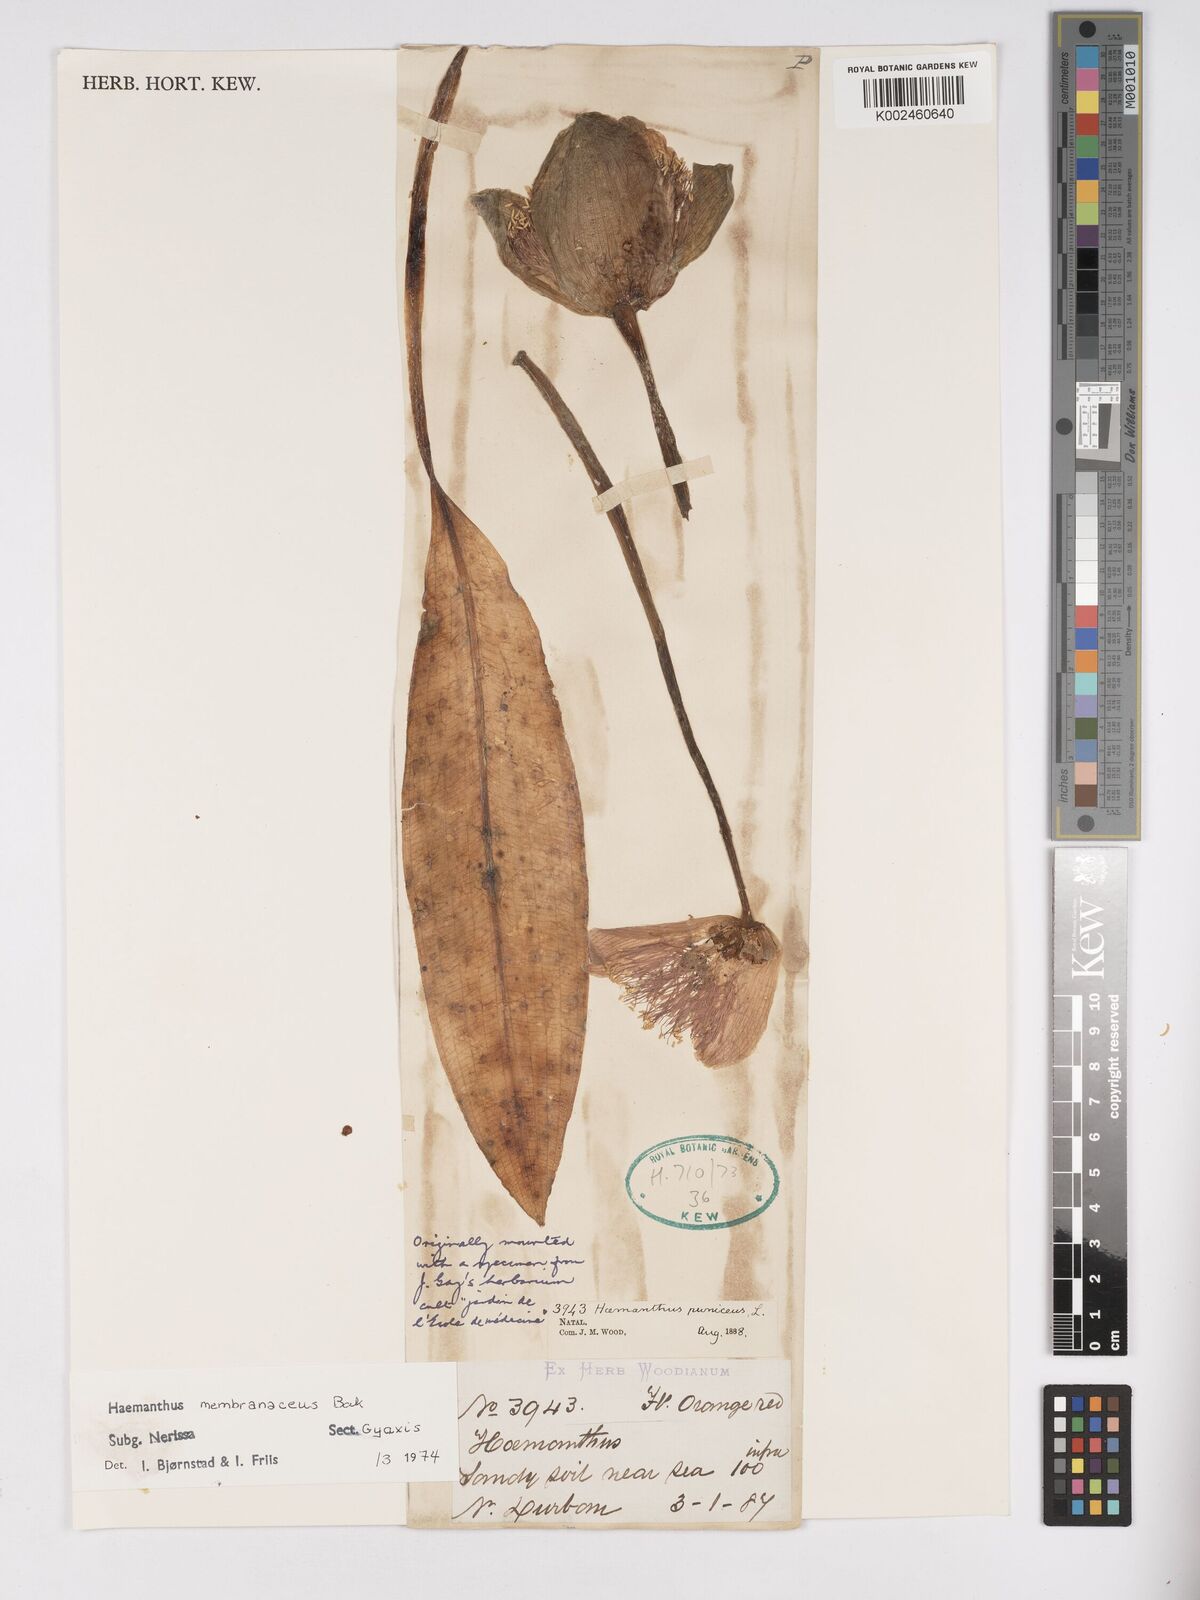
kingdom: Plantae
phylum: Tracheophyta
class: Liliopsida
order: Asparagales
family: Amaryllidaceae
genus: Scadoxus
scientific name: Scadoxus membranaceus
